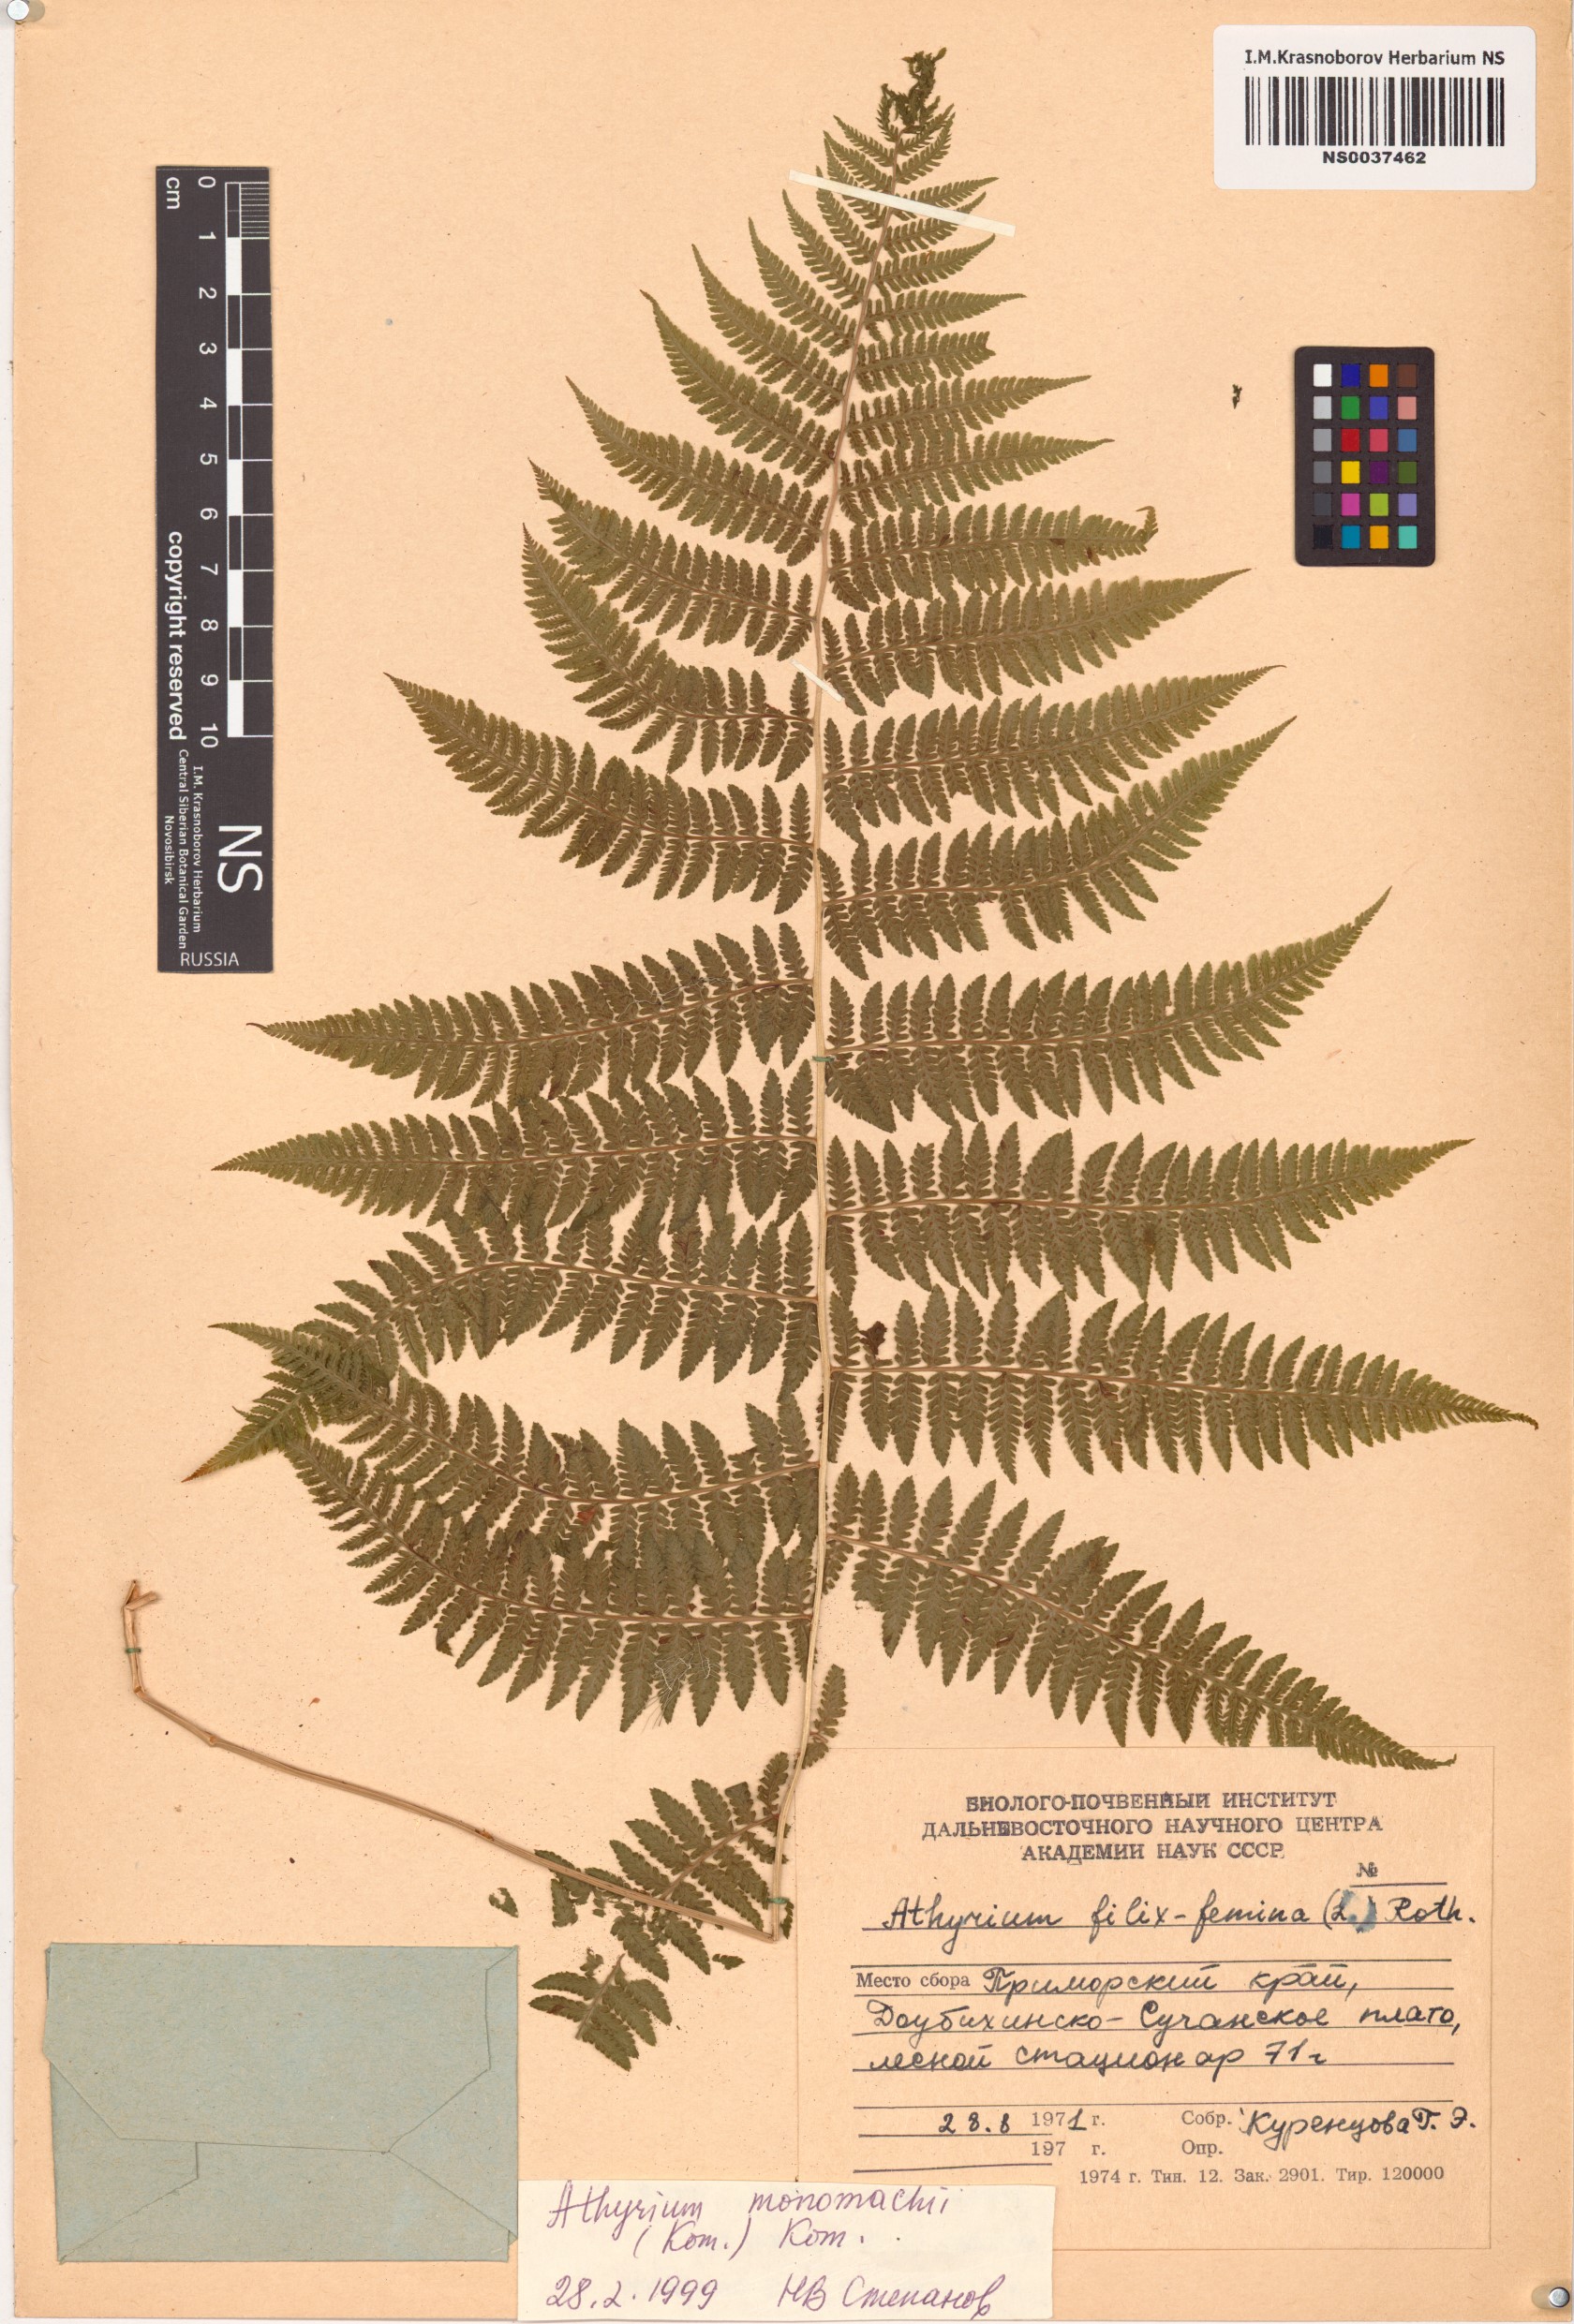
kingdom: Plantae
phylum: Tracheophyta
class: Polypodiopsida
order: Polypodiales
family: Athyriaceae
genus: Athyrium
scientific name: Athyrium monomachii
